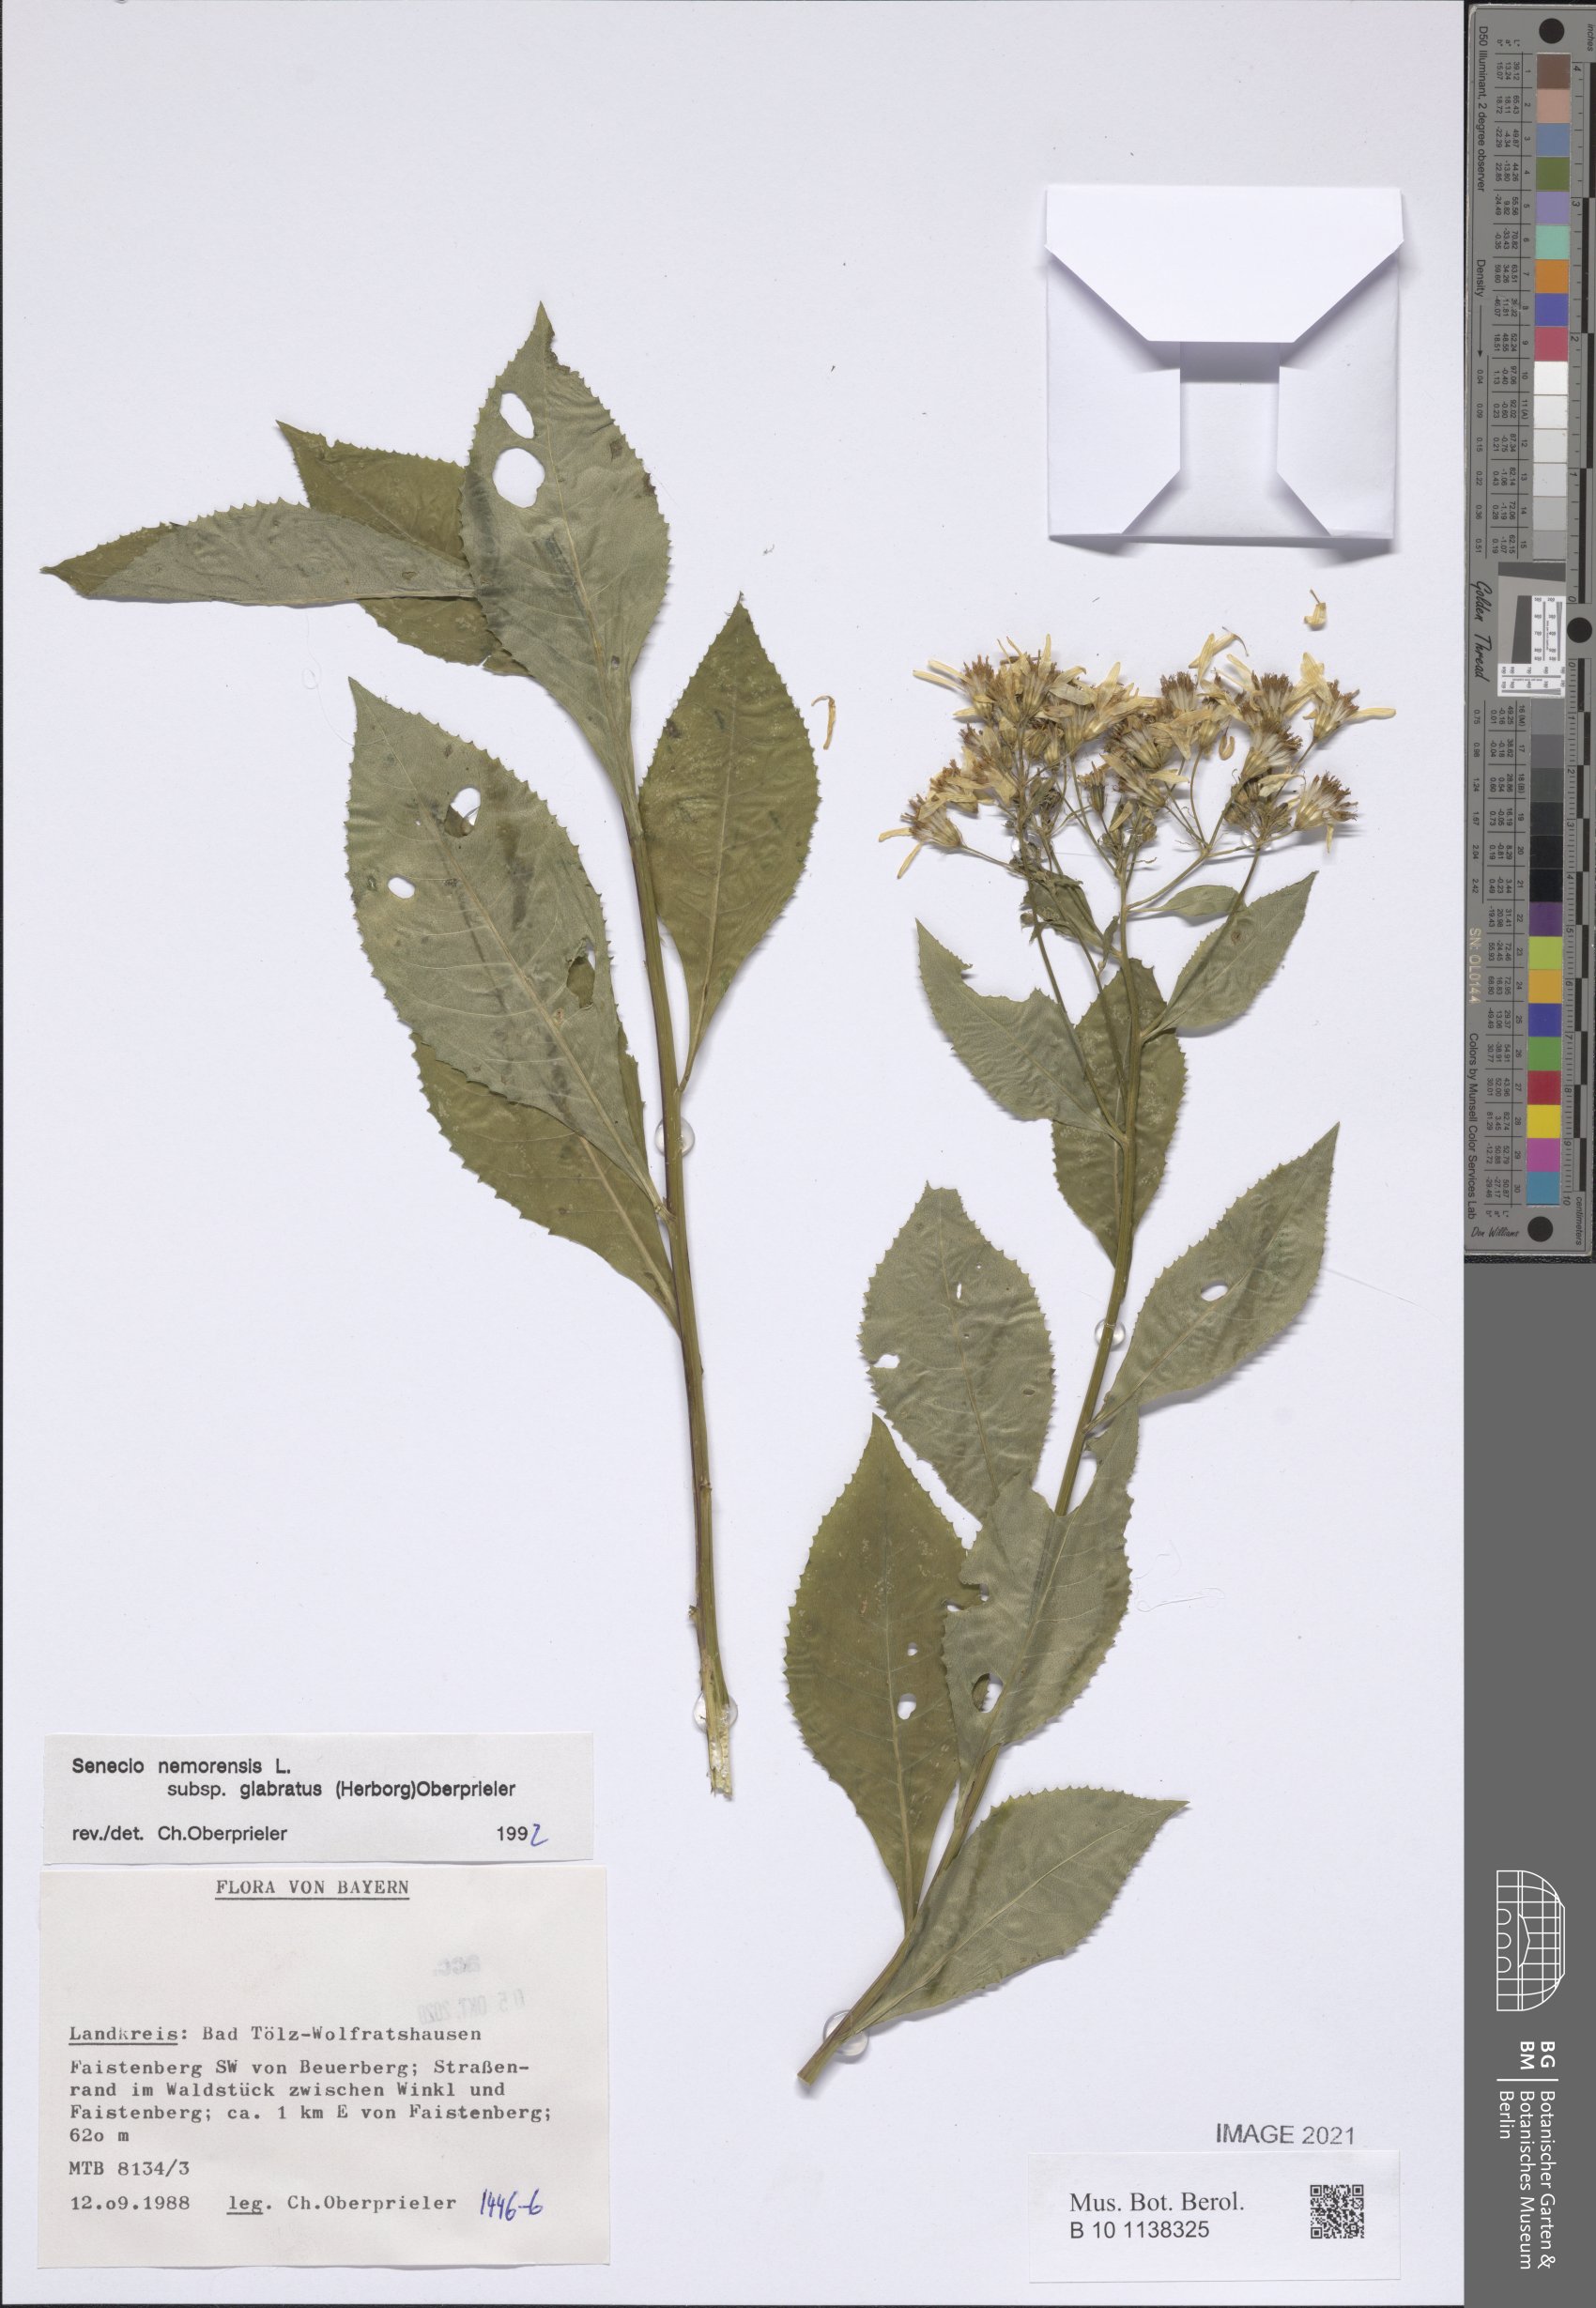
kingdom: Plantae
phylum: Tracheophyta
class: Magnoliopsida
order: Asterales
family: Asteraceae
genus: Senecio
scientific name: Senecio germanicus
